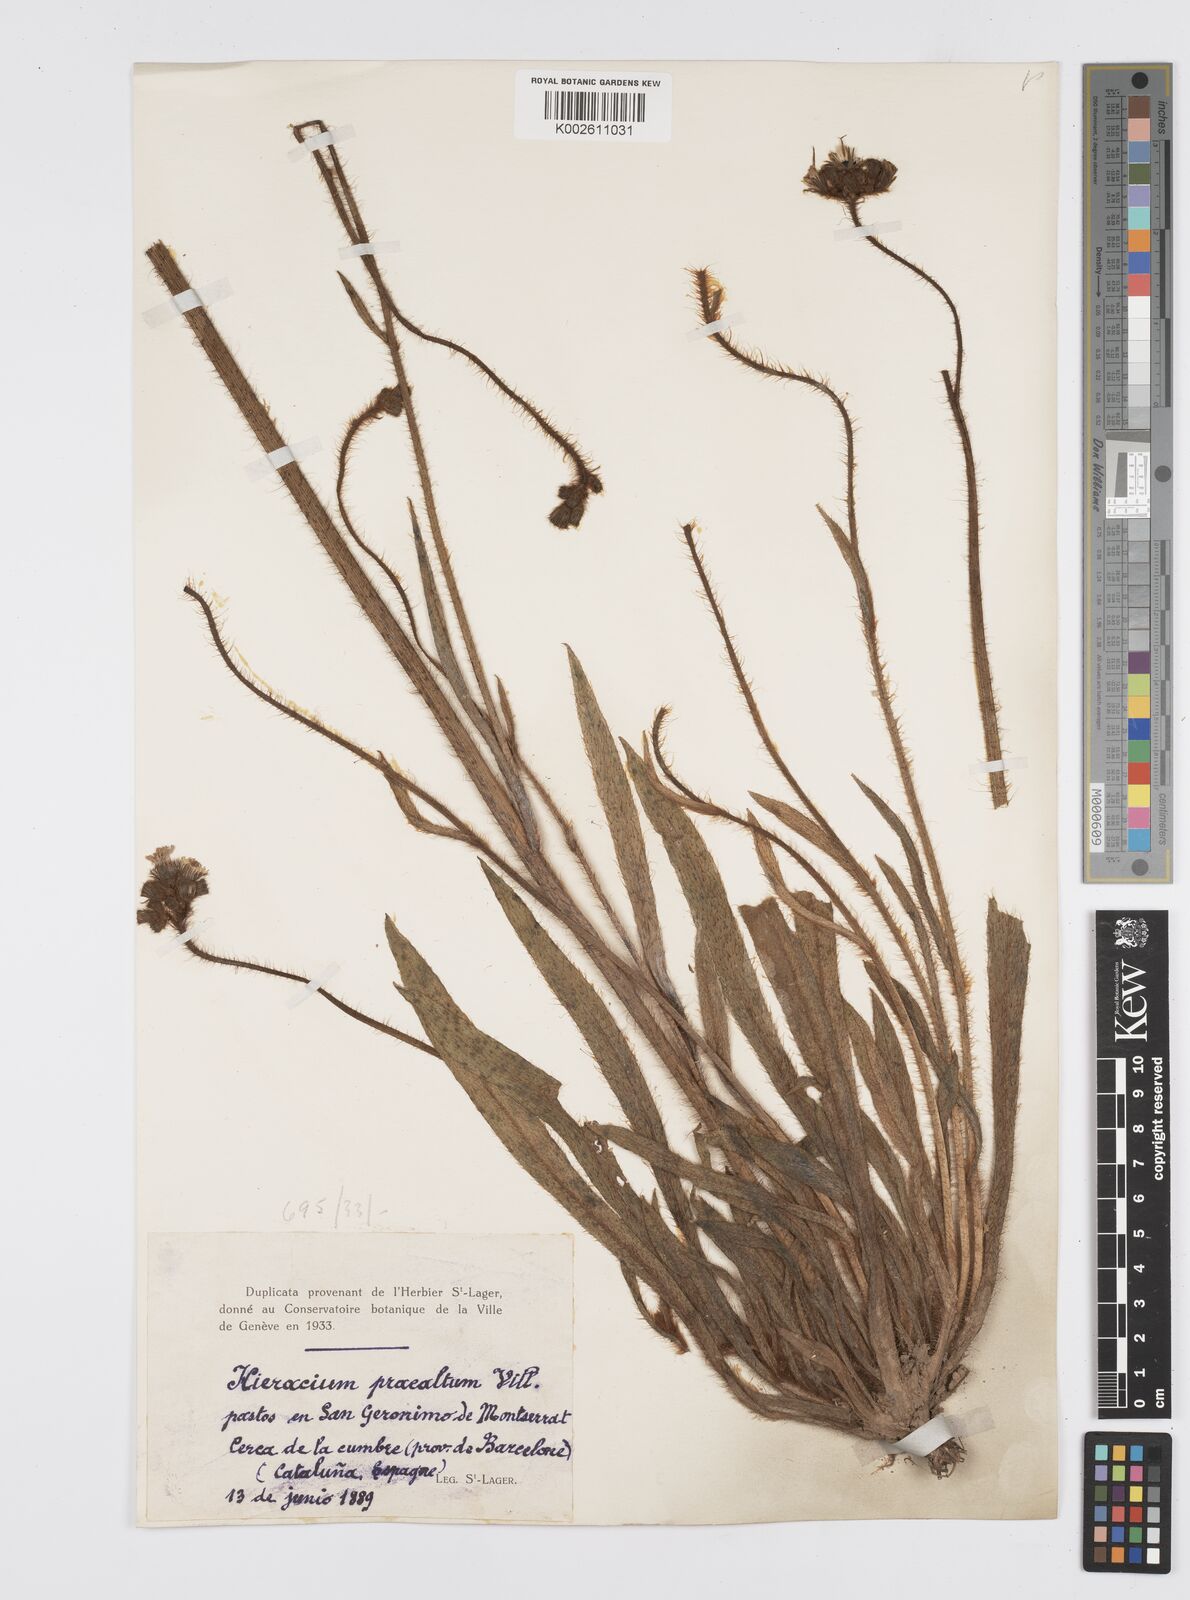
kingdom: Plantae
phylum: Tracheophyta
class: Magnoliopsida
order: Asterales
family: Asteraceae
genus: Pilosella
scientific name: Pilosella piloselloides
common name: Glaucous king-devil
